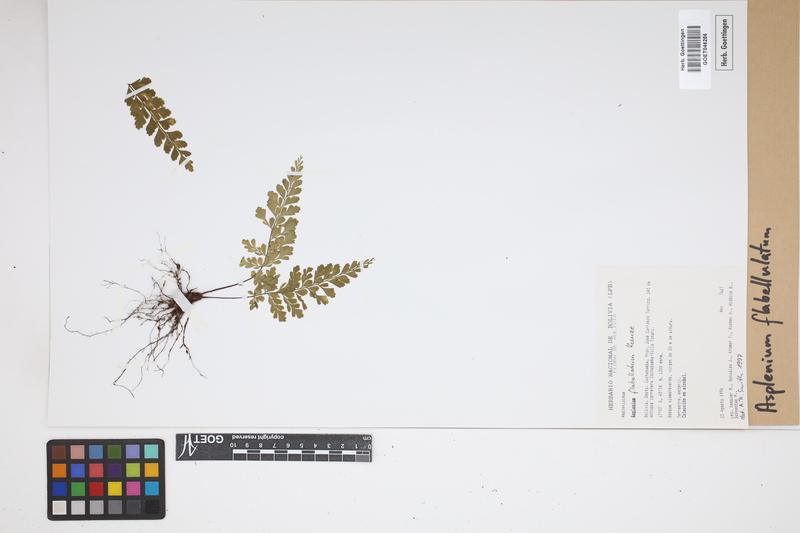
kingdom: Plantae
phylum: Tracheophyta
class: Polypodiopsida
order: Polypodiales
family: Aspleniaceae
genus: Asplenium
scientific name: Asplenium flabellulatum
